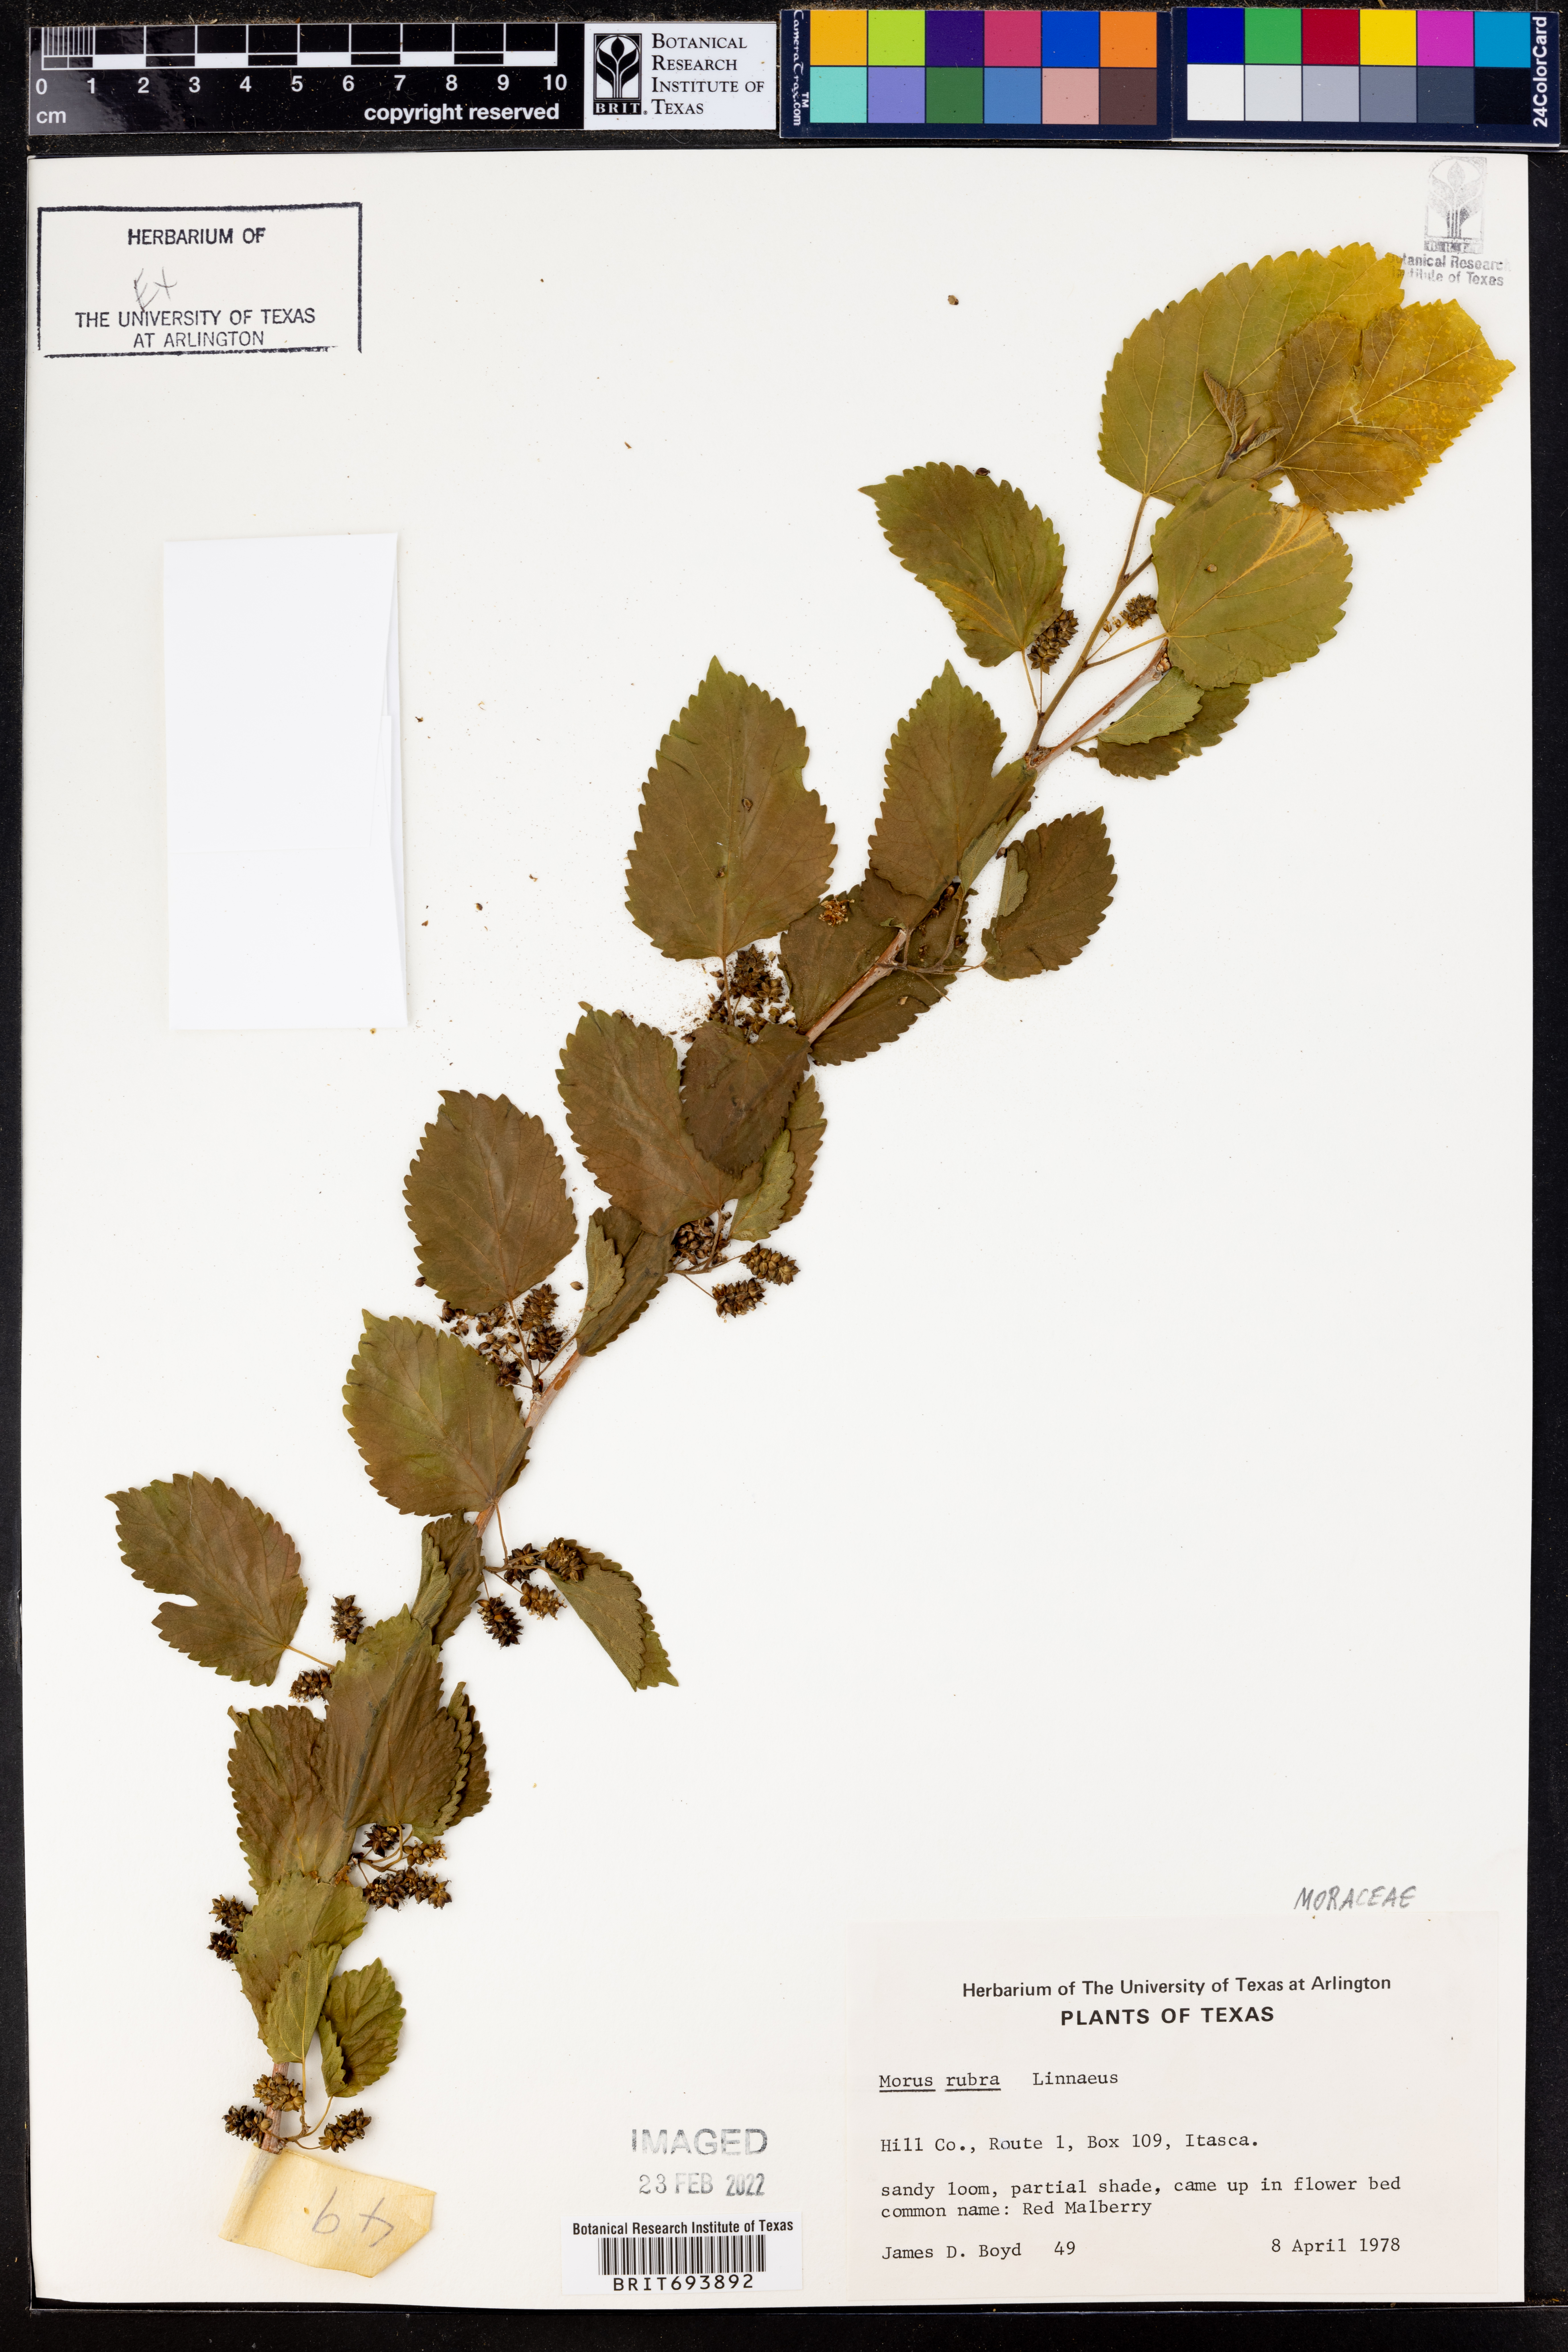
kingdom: Plantae
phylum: Tracheophyta
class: Magnoliopsida
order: Rosales
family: Moraceae
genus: Morus
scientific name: Morus rubra
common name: Red mulberry
